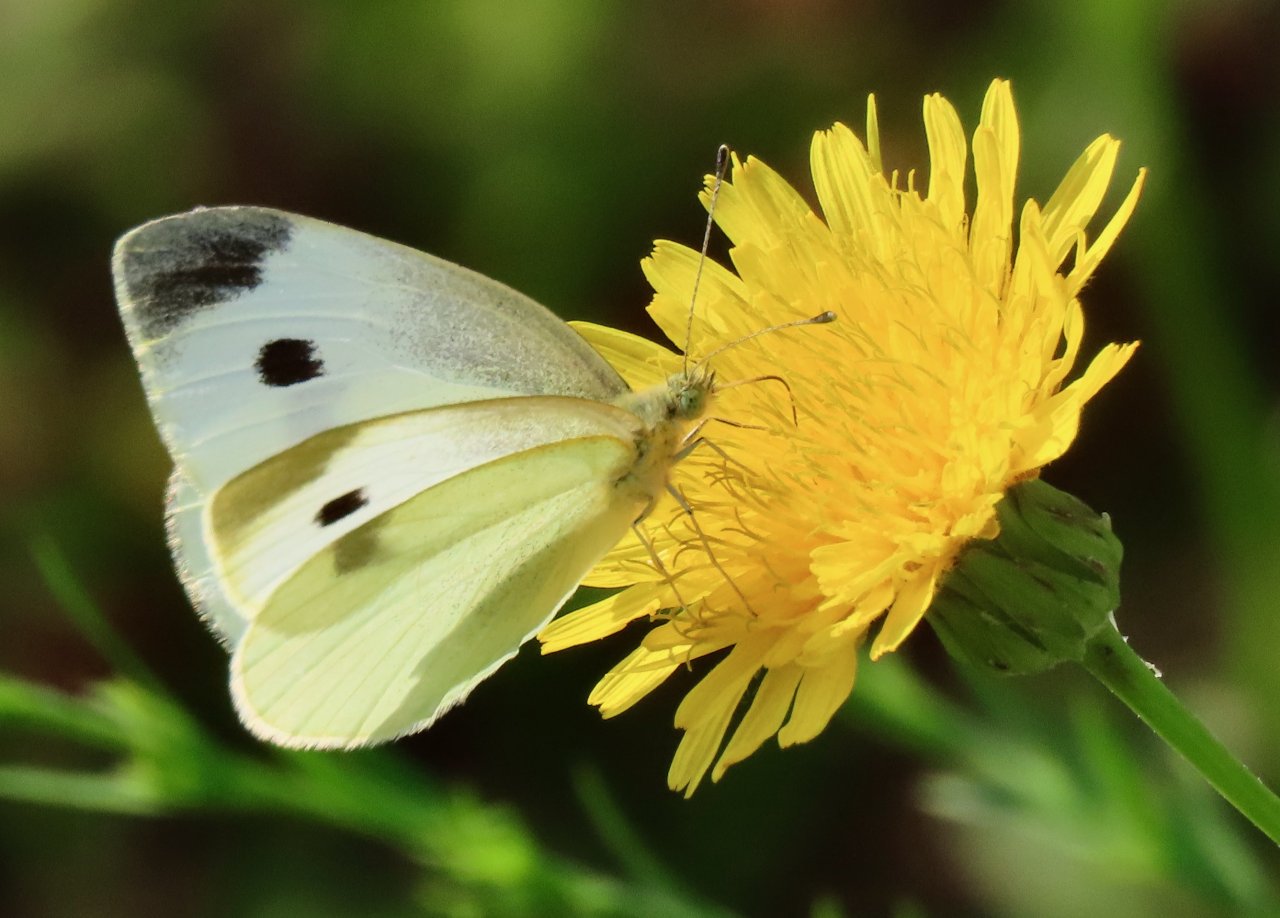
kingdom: Animalia
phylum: Arthropoda
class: Insecta
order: Lepidoptera
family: Pieridae
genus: Pieris
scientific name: Pieris rapae
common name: Cabbage White
